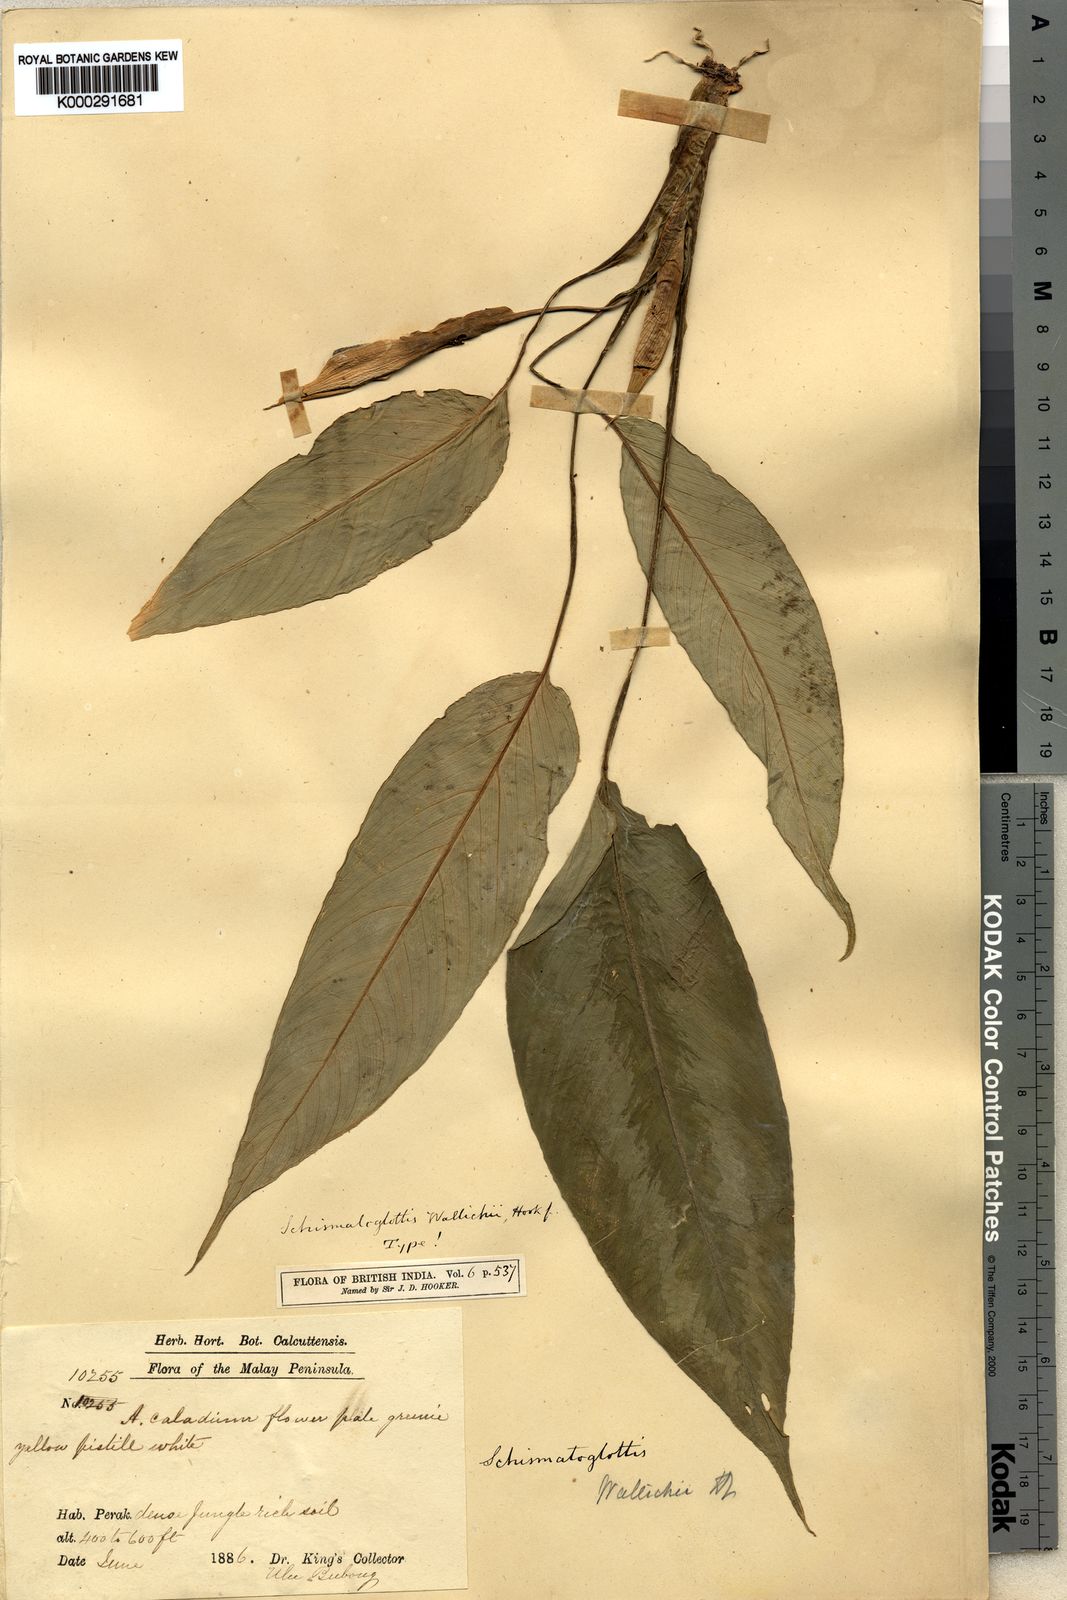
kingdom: Plantae
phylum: Tracheophyta
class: Liliopsida
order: Alismatales
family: Araceae
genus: Schismatoglottis
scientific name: Schismatoglottis wallichii
